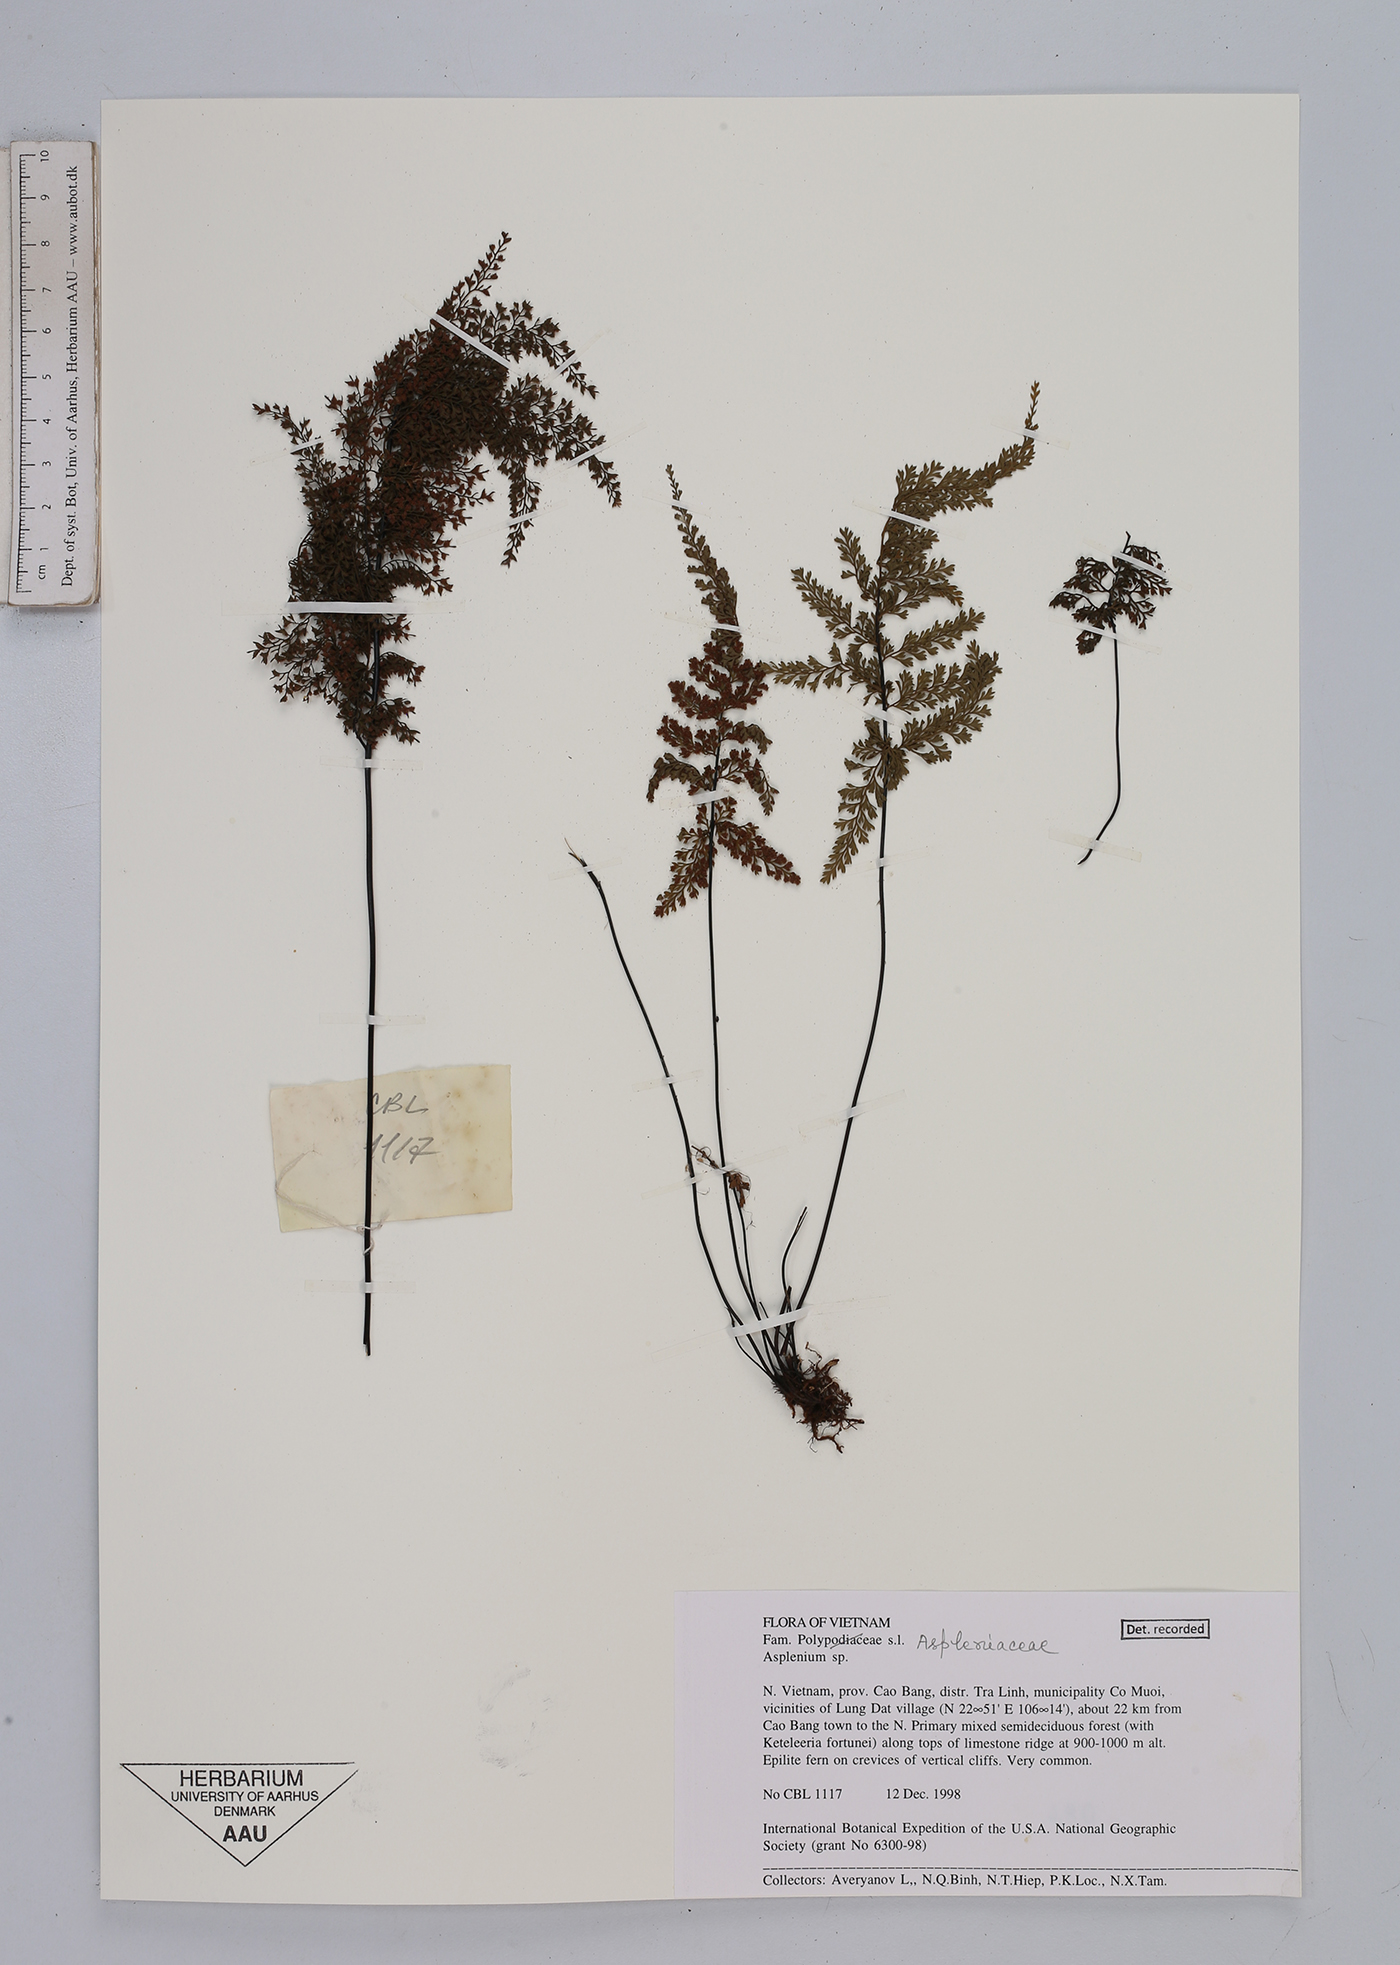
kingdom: Plantae
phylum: Tracheophyta
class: Polypodiopsida
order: Polypodiales
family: Aspleniaceae
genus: Asplenium
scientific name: Asplenium
